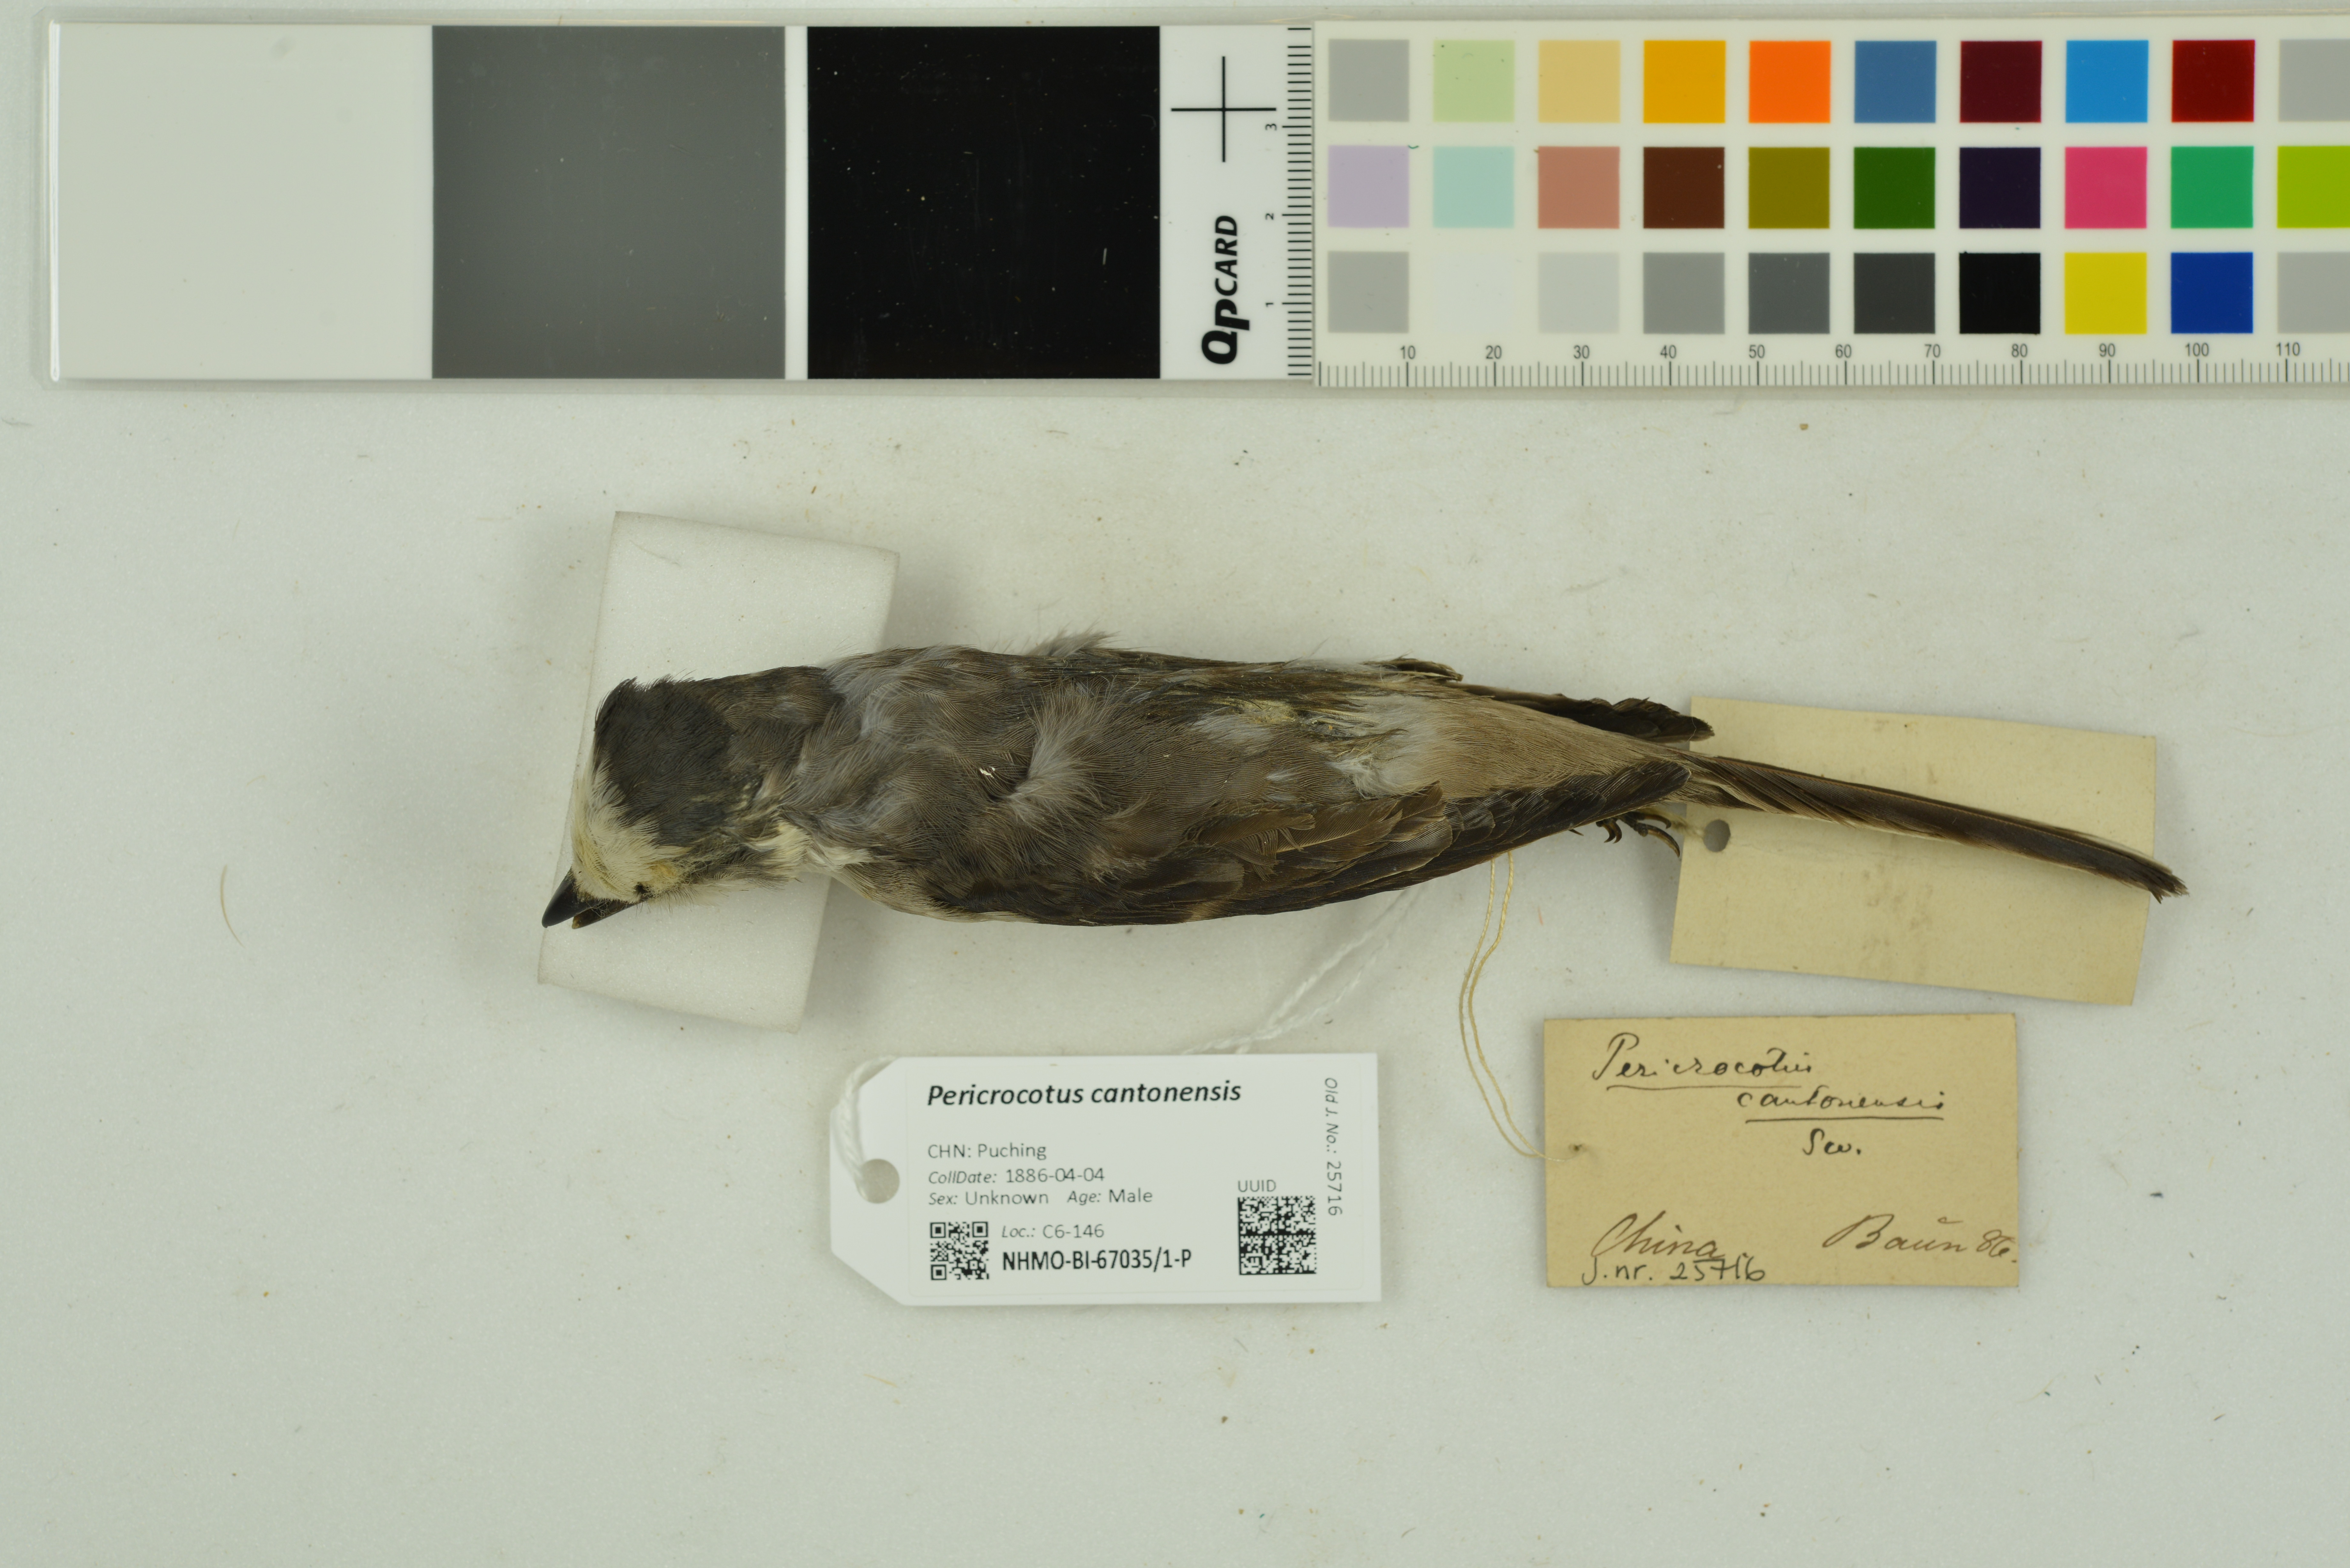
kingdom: Animalia
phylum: Chordata
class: Aves
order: Passeriformes
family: Campephagidae
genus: Pericrocotus
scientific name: Pericrocotus cantonensis
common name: Swinhoe's minivet
